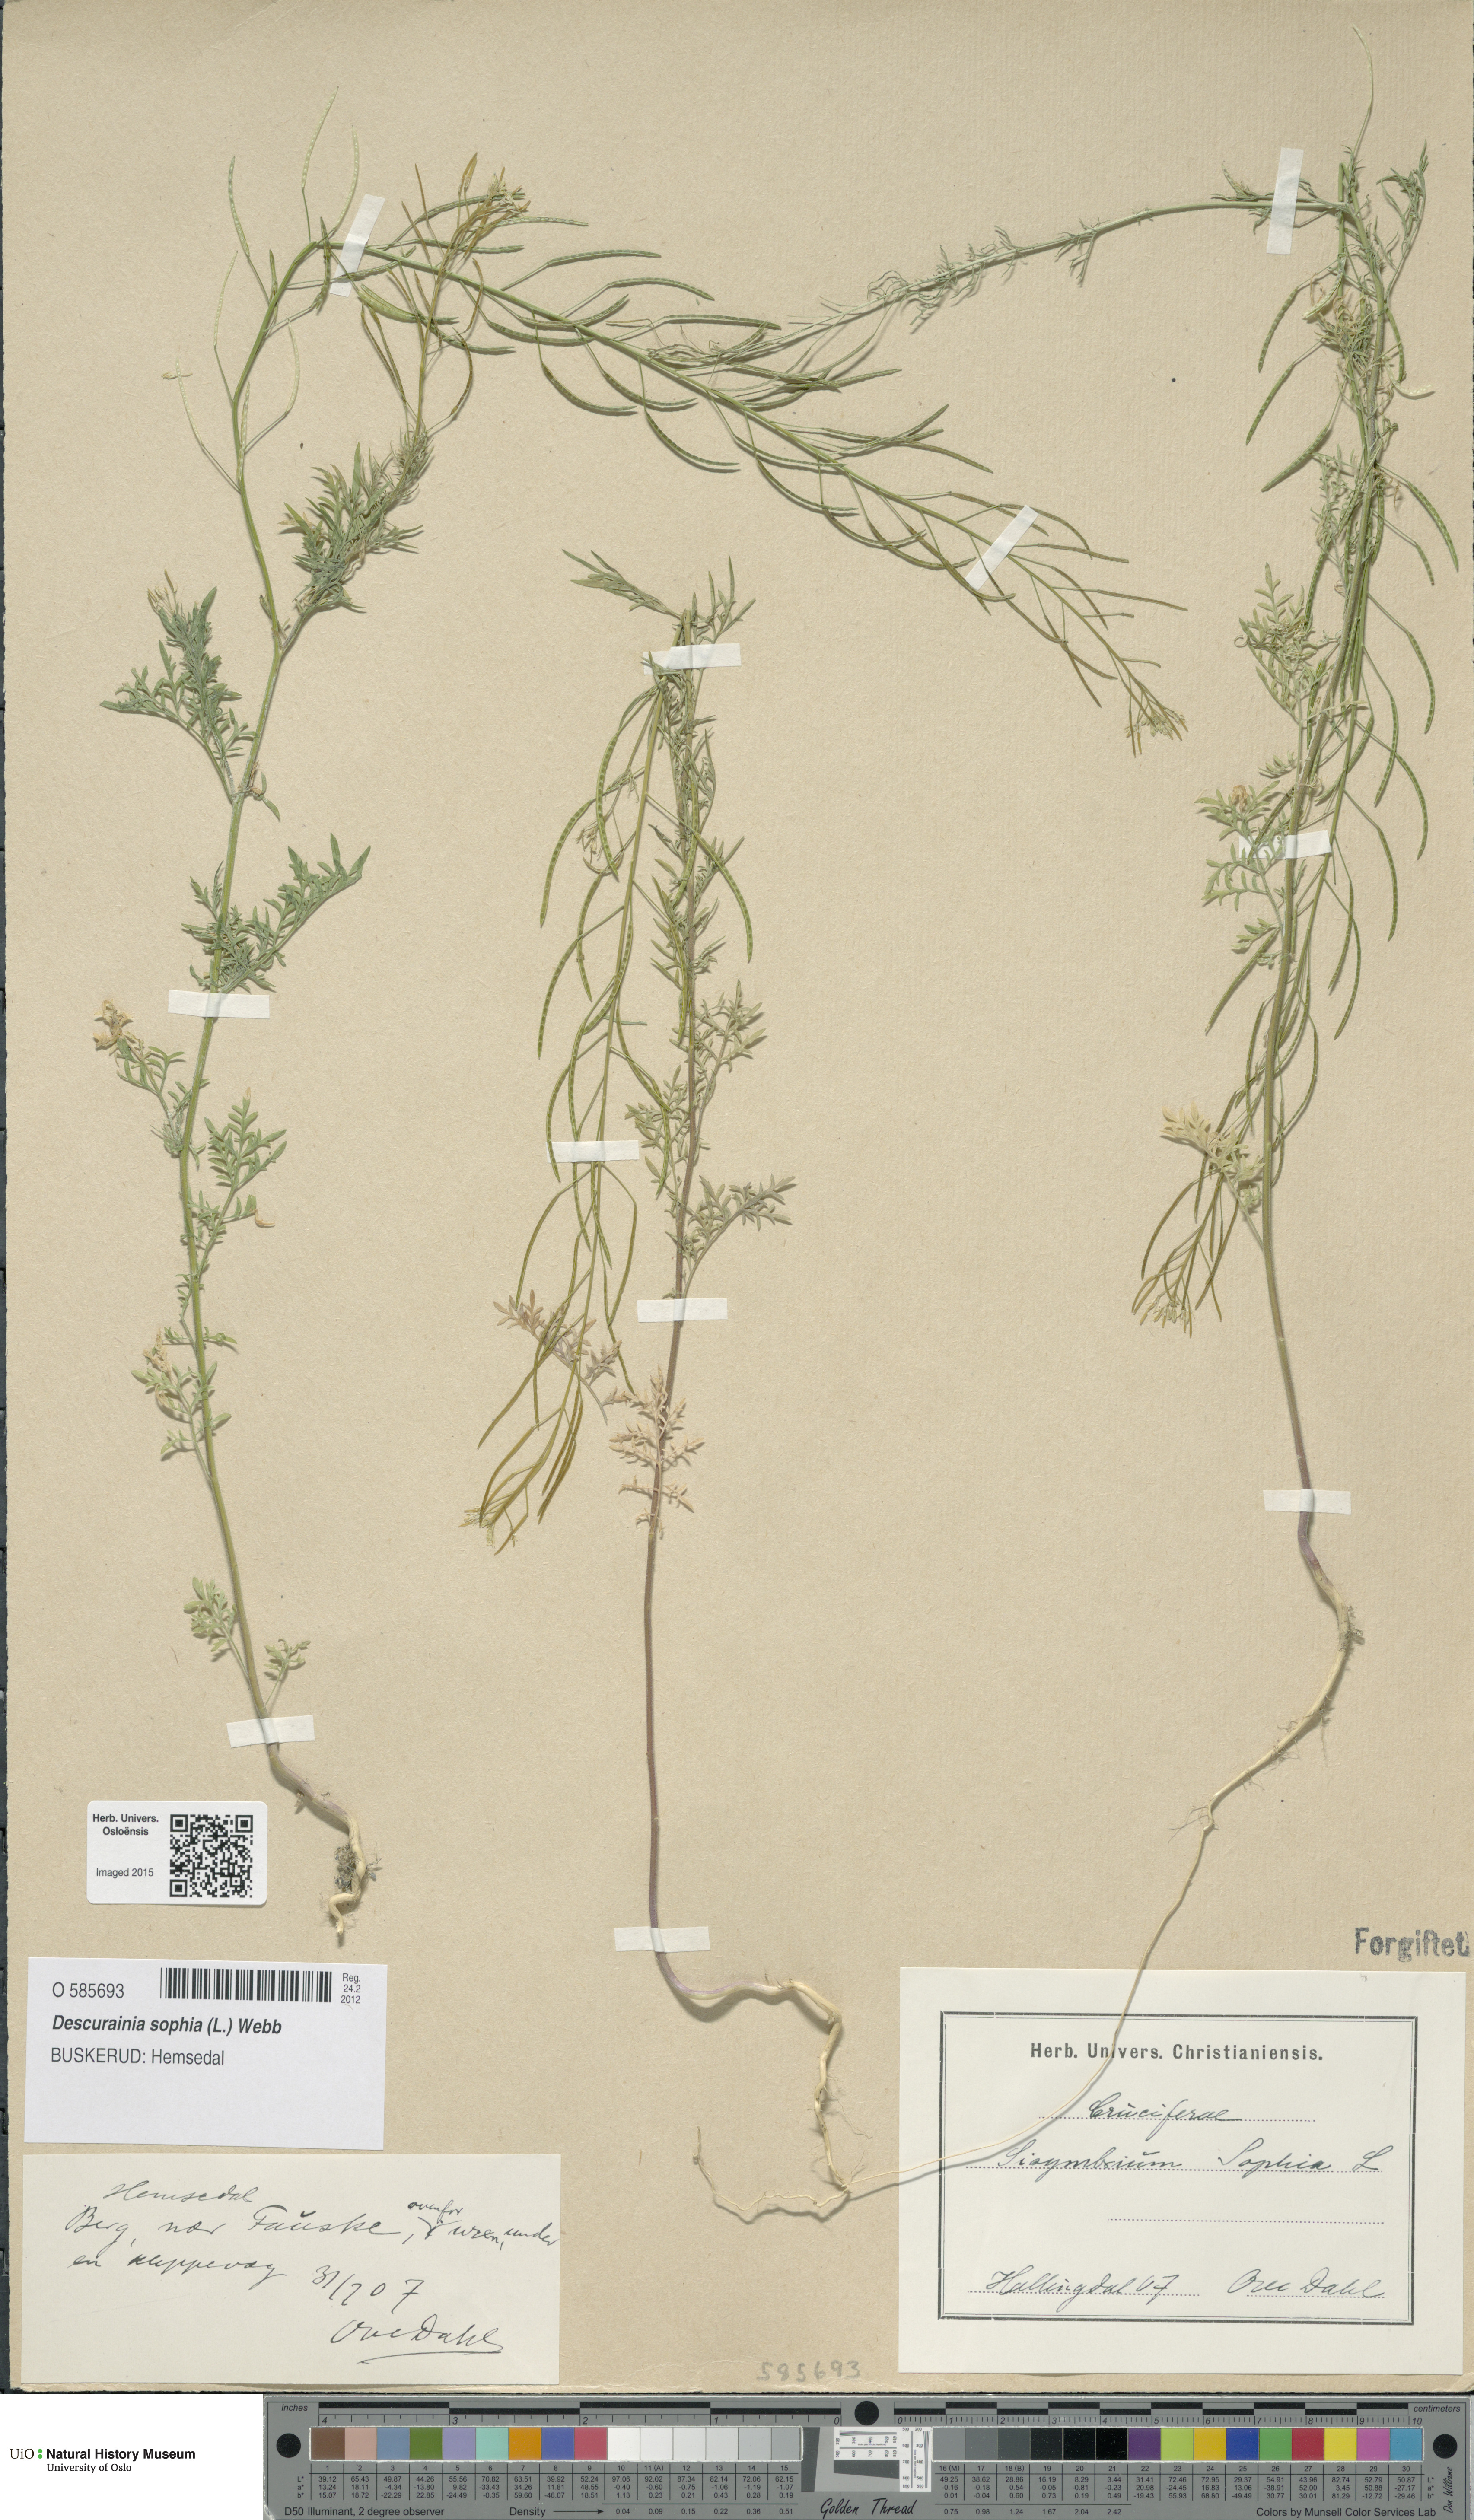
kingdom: Plantae
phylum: Tracheophyta
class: Magnoliopsida
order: Brassicales
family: Brassicaceae
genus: Descurainia
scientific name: Descurainia sophia
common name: Flixweed
